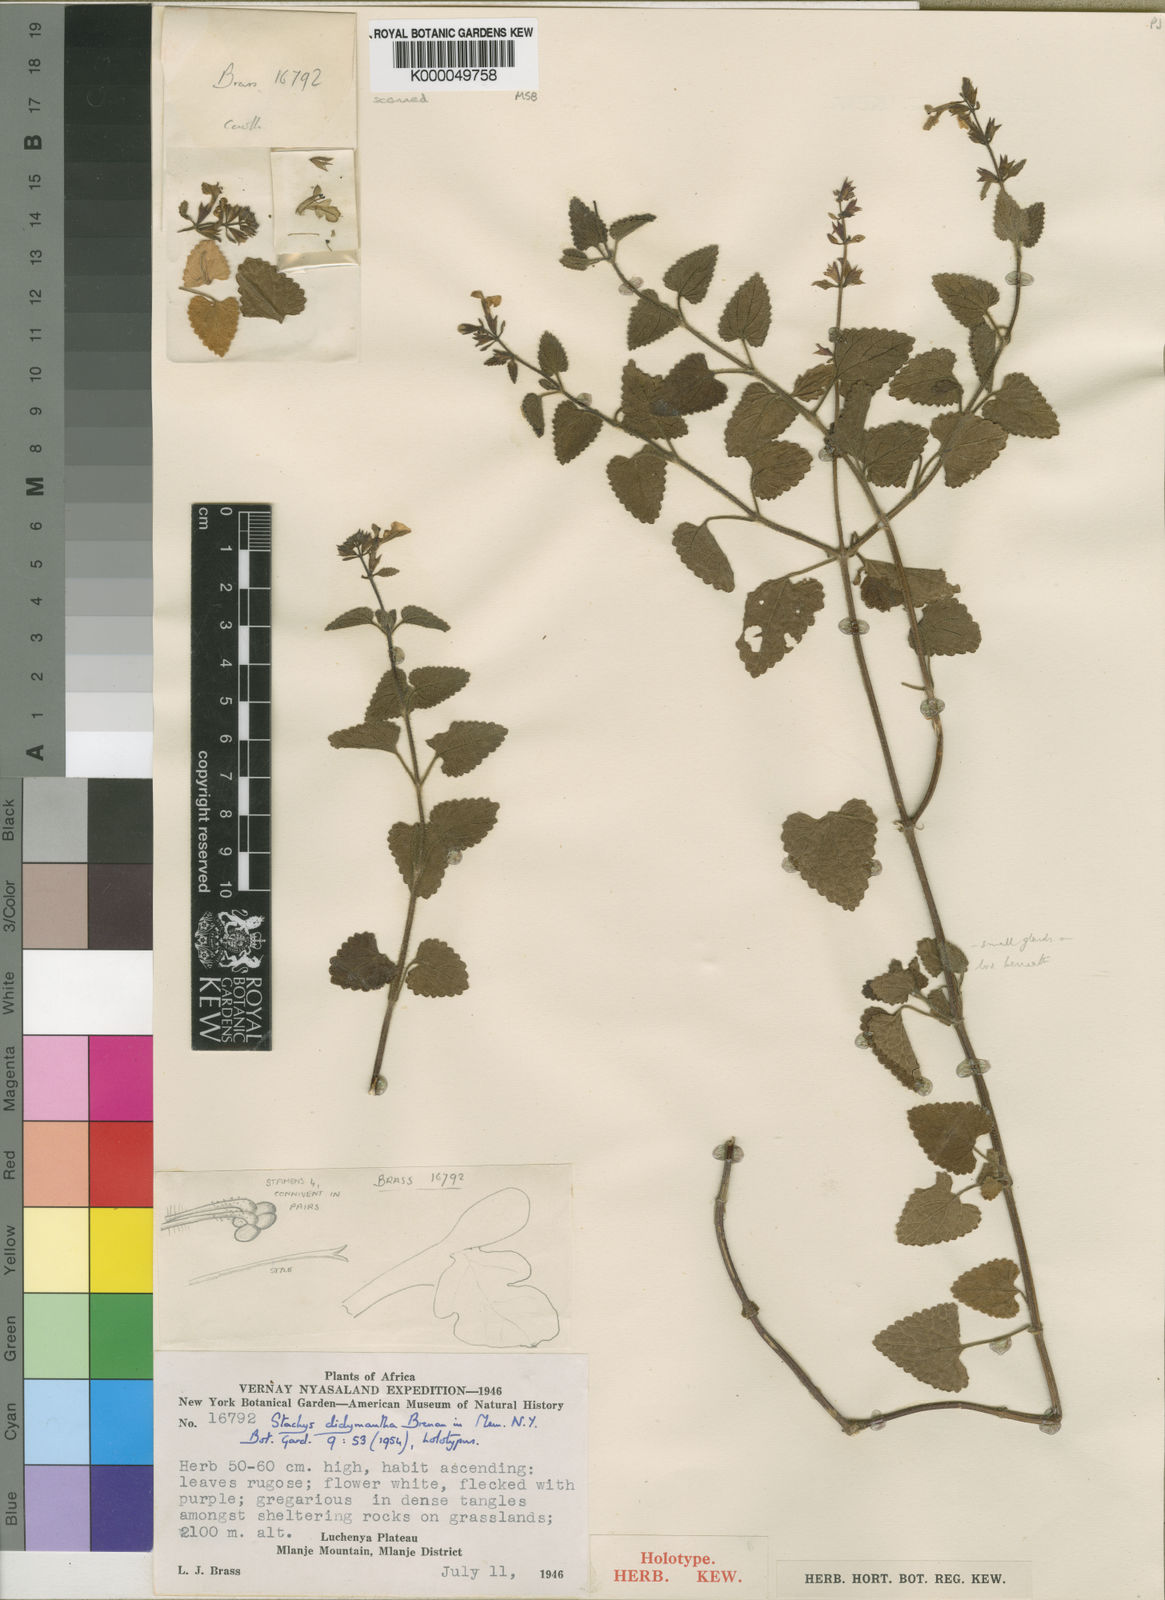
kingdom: Plantae
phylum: Tracheophyta
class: Magnoliopsida
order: Lamiales
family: Lamiaceae
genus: Stachys
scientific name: Stachys didymantha
